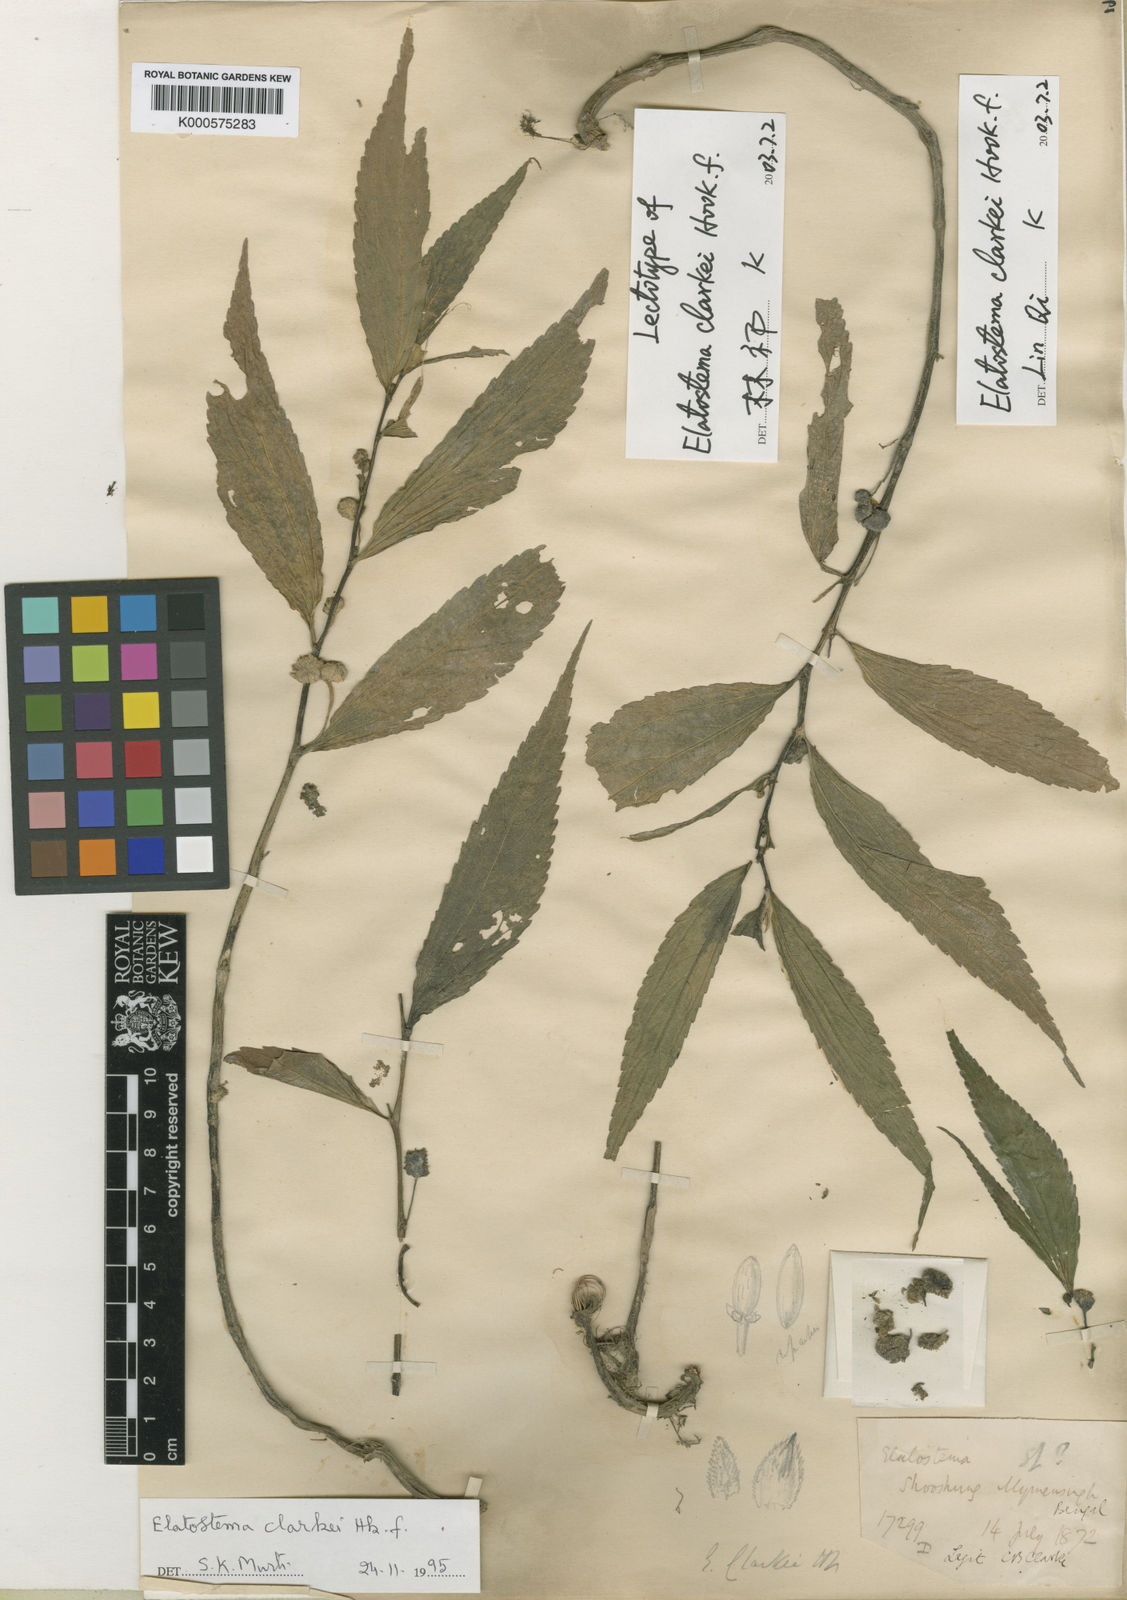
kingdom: Plantae
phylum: Tracheophyta
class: Magnoliopsida
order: Rosales
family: Urticaceae
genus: Elatostema
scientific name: Elatostema clarkei
